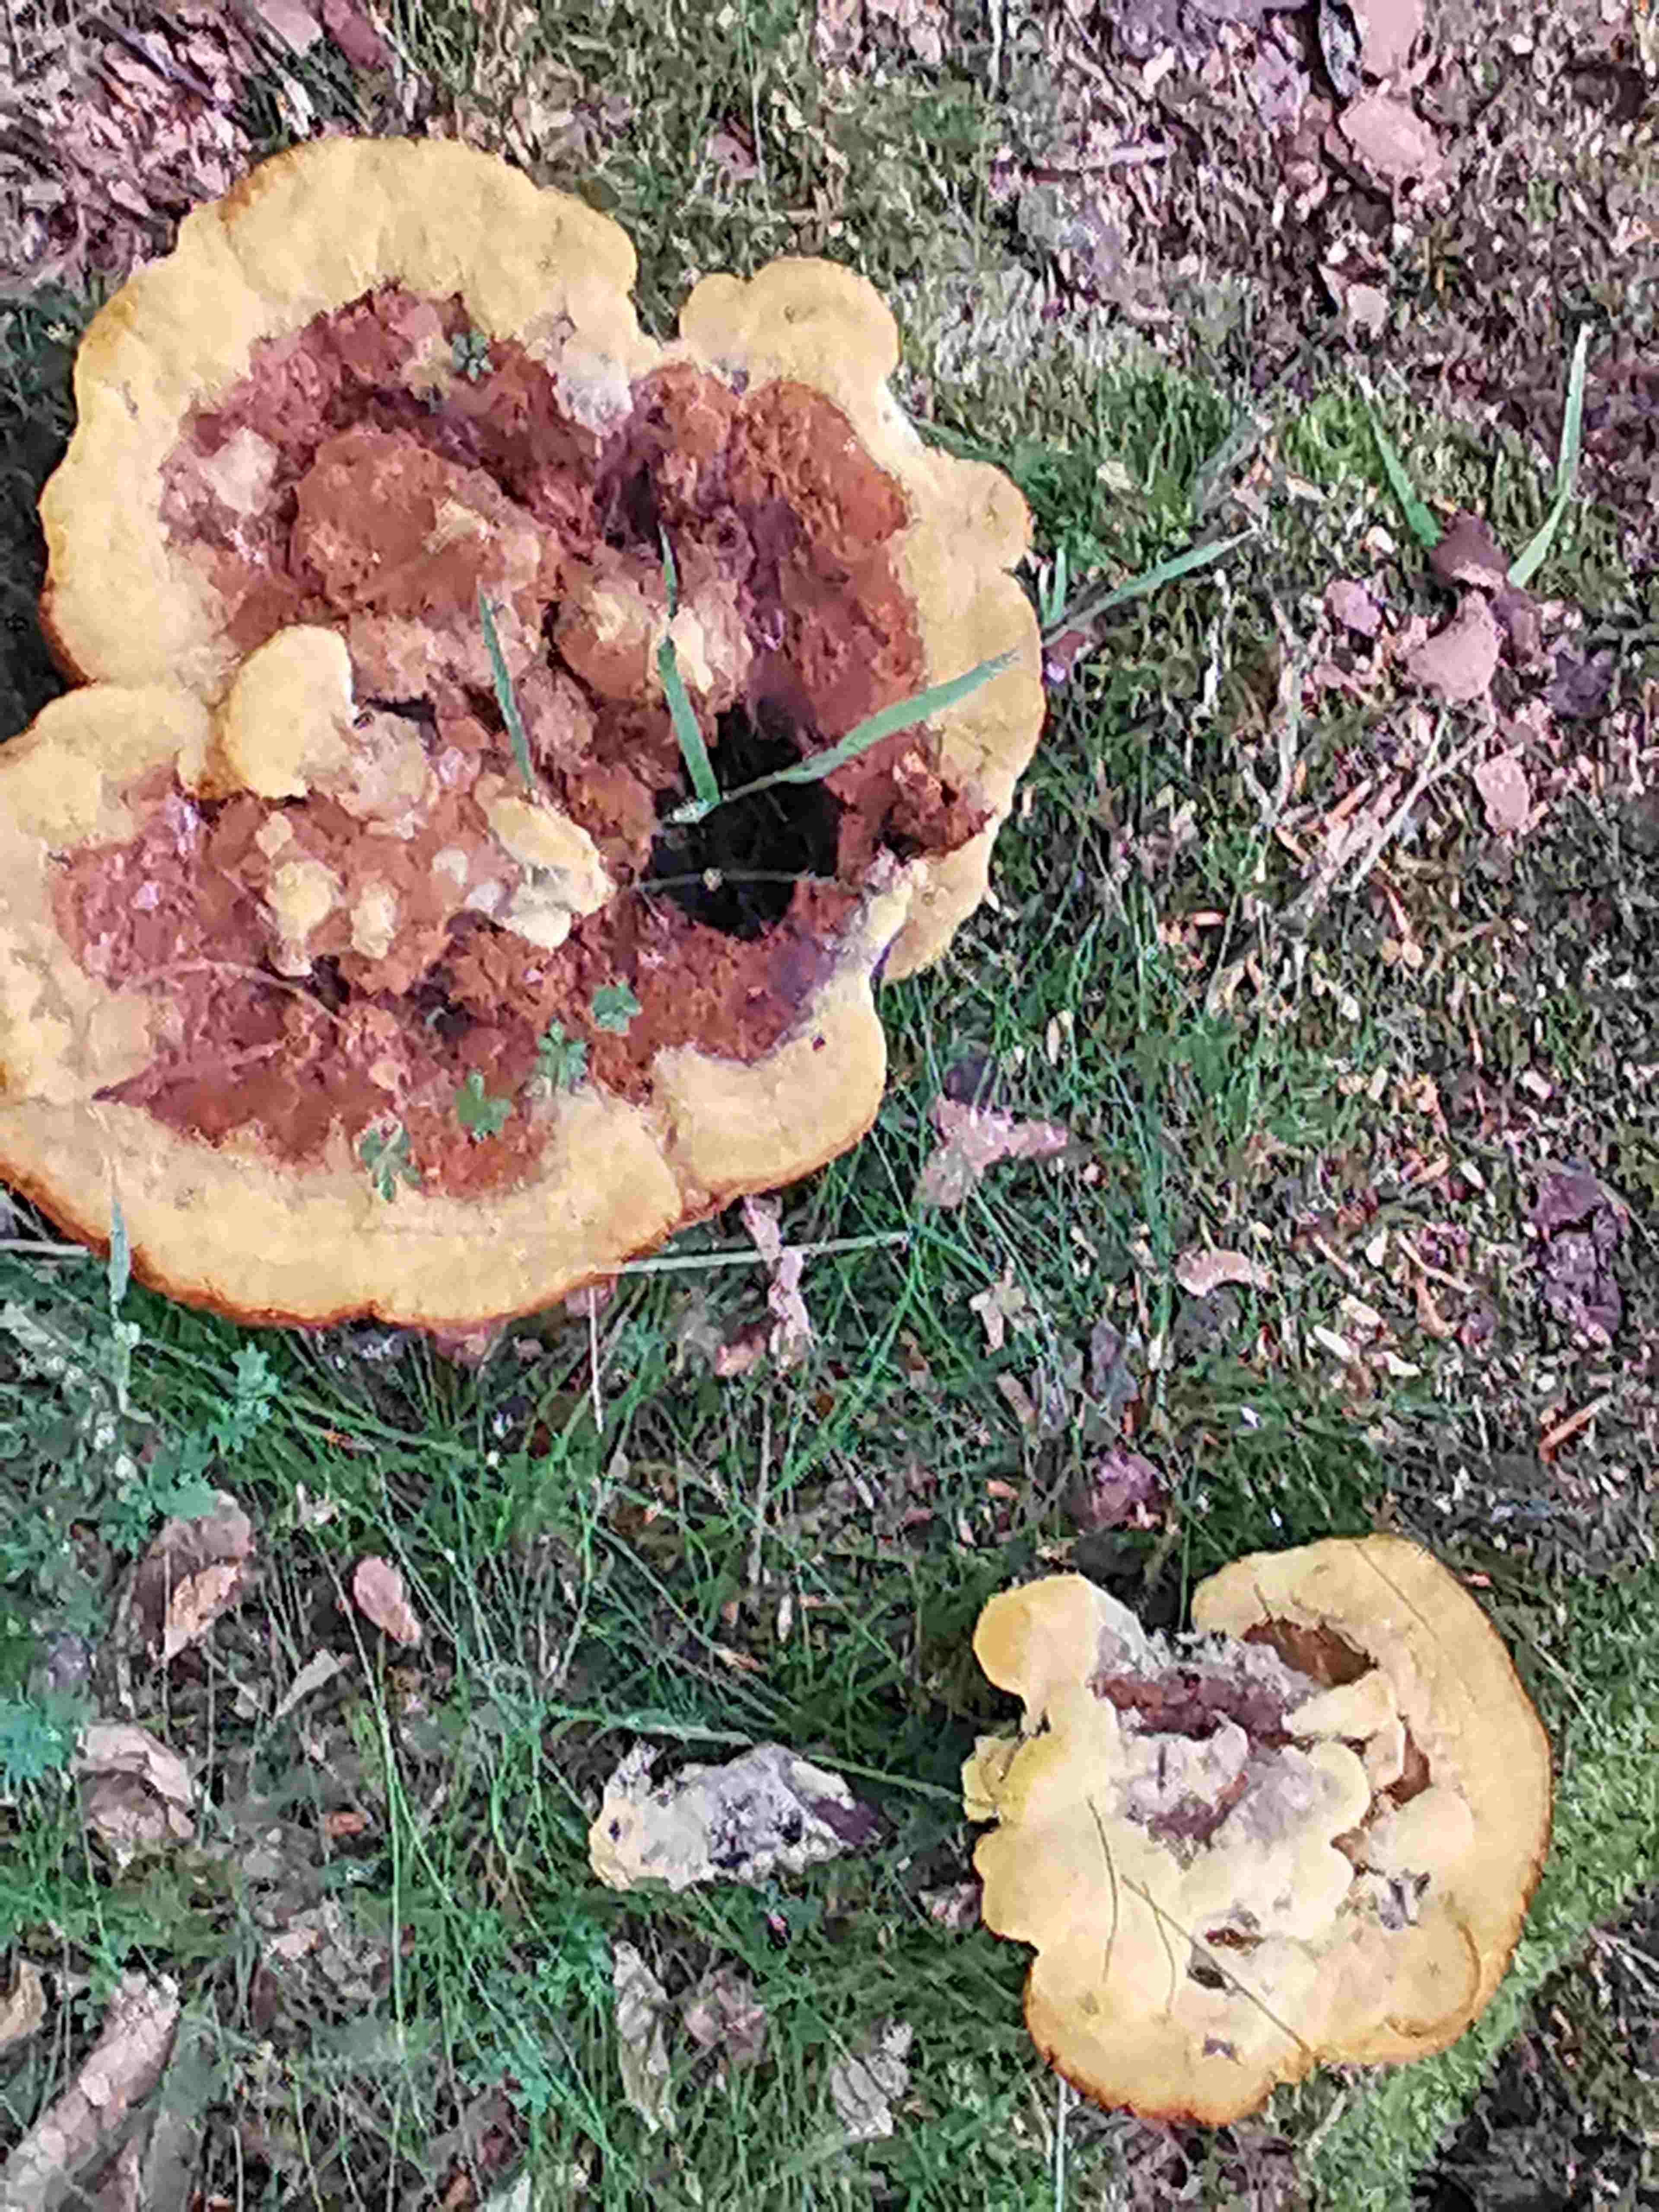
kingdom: Fungi
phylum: Basidiomycota
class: Agaricomycetes
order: Polyporales
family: Laetiporaceae
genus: Phaeolus
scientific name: Phaeolus schweinitzii
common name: brunporesvamp
